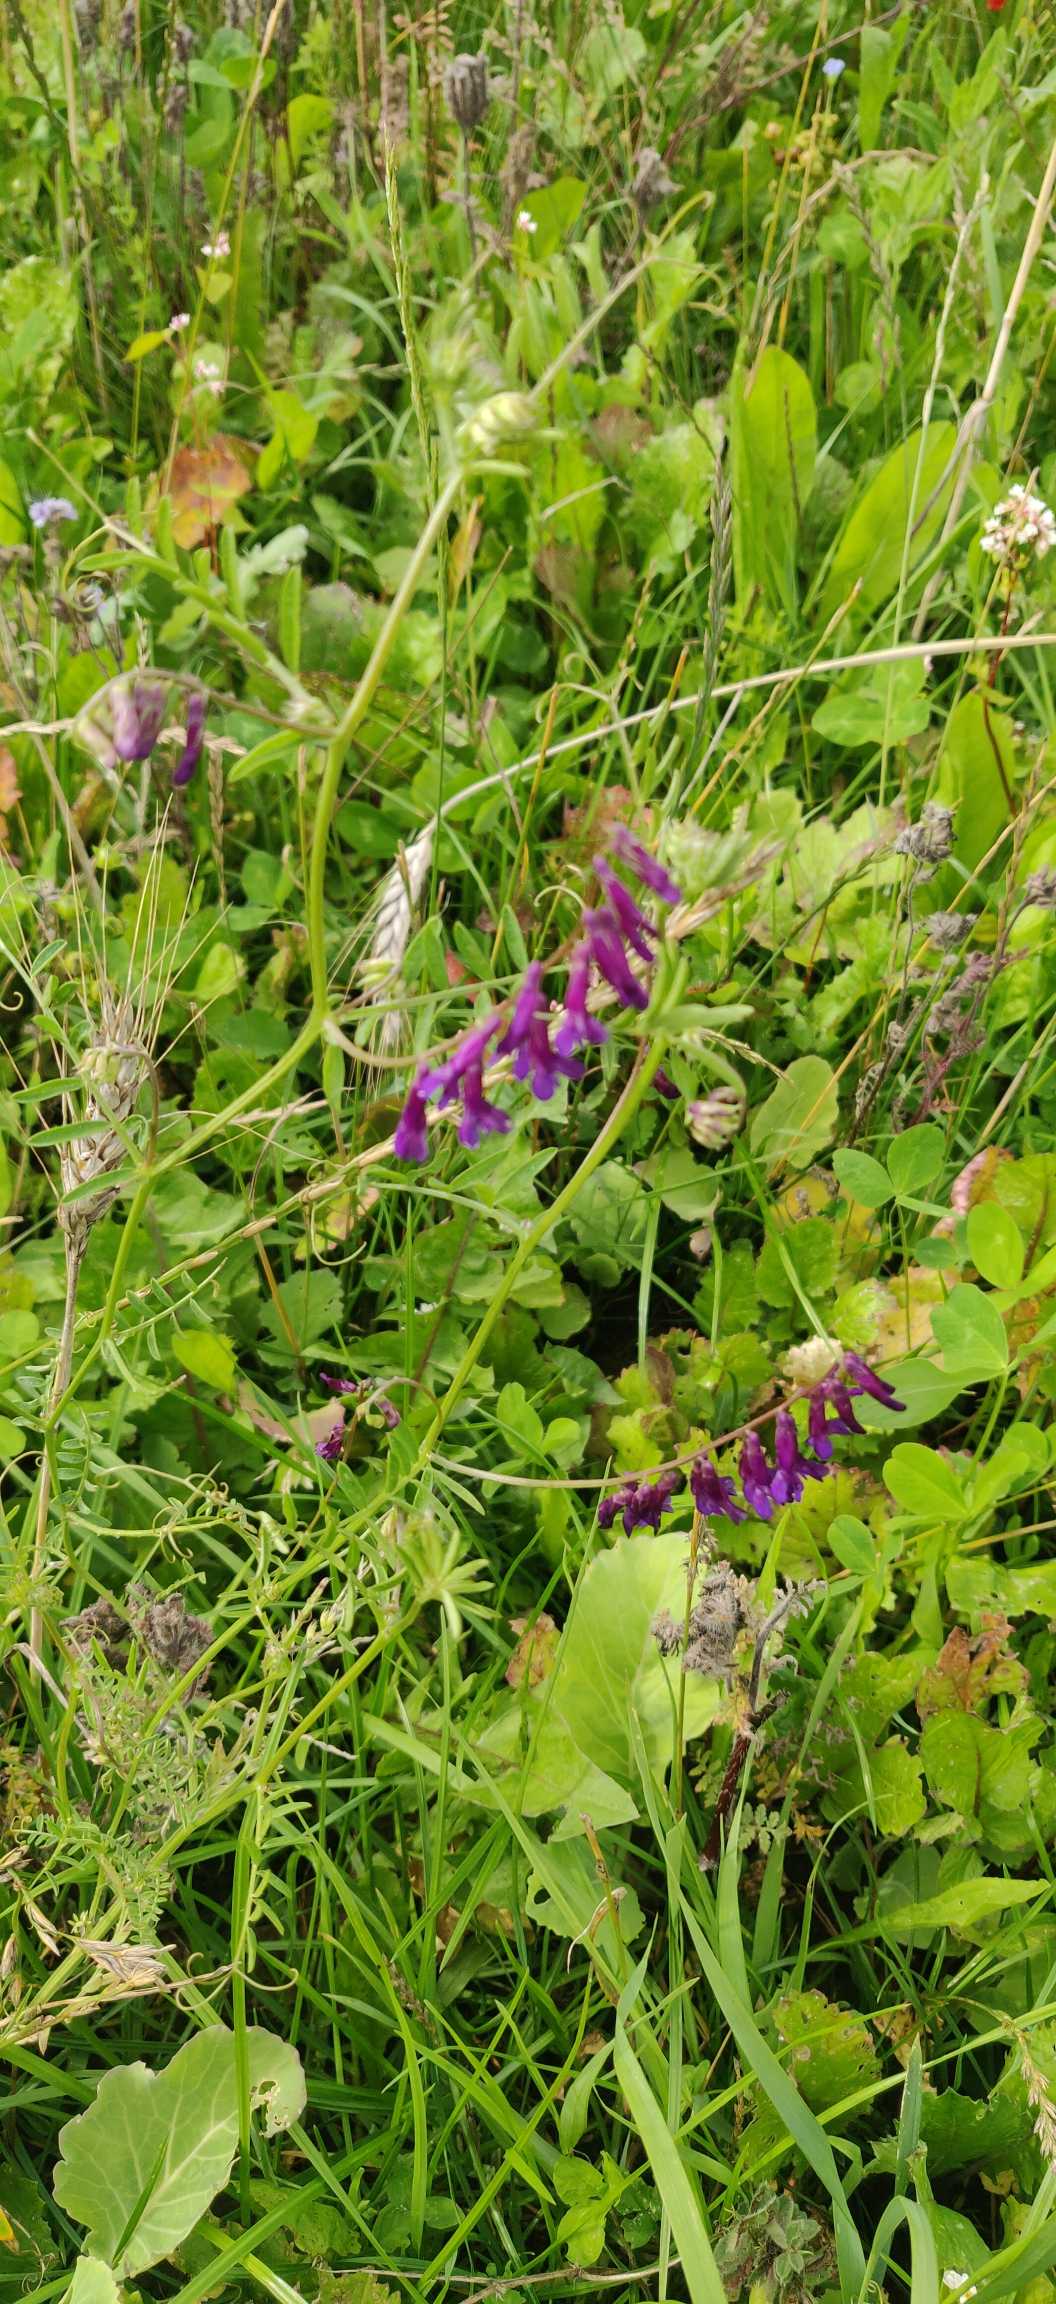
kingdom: Plantae
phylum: Tracheophyta
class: Magnoliopsida
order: Fabales
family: Fabaceae
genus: Vicia
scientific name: Vicia cracca
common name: Muse-vikke
